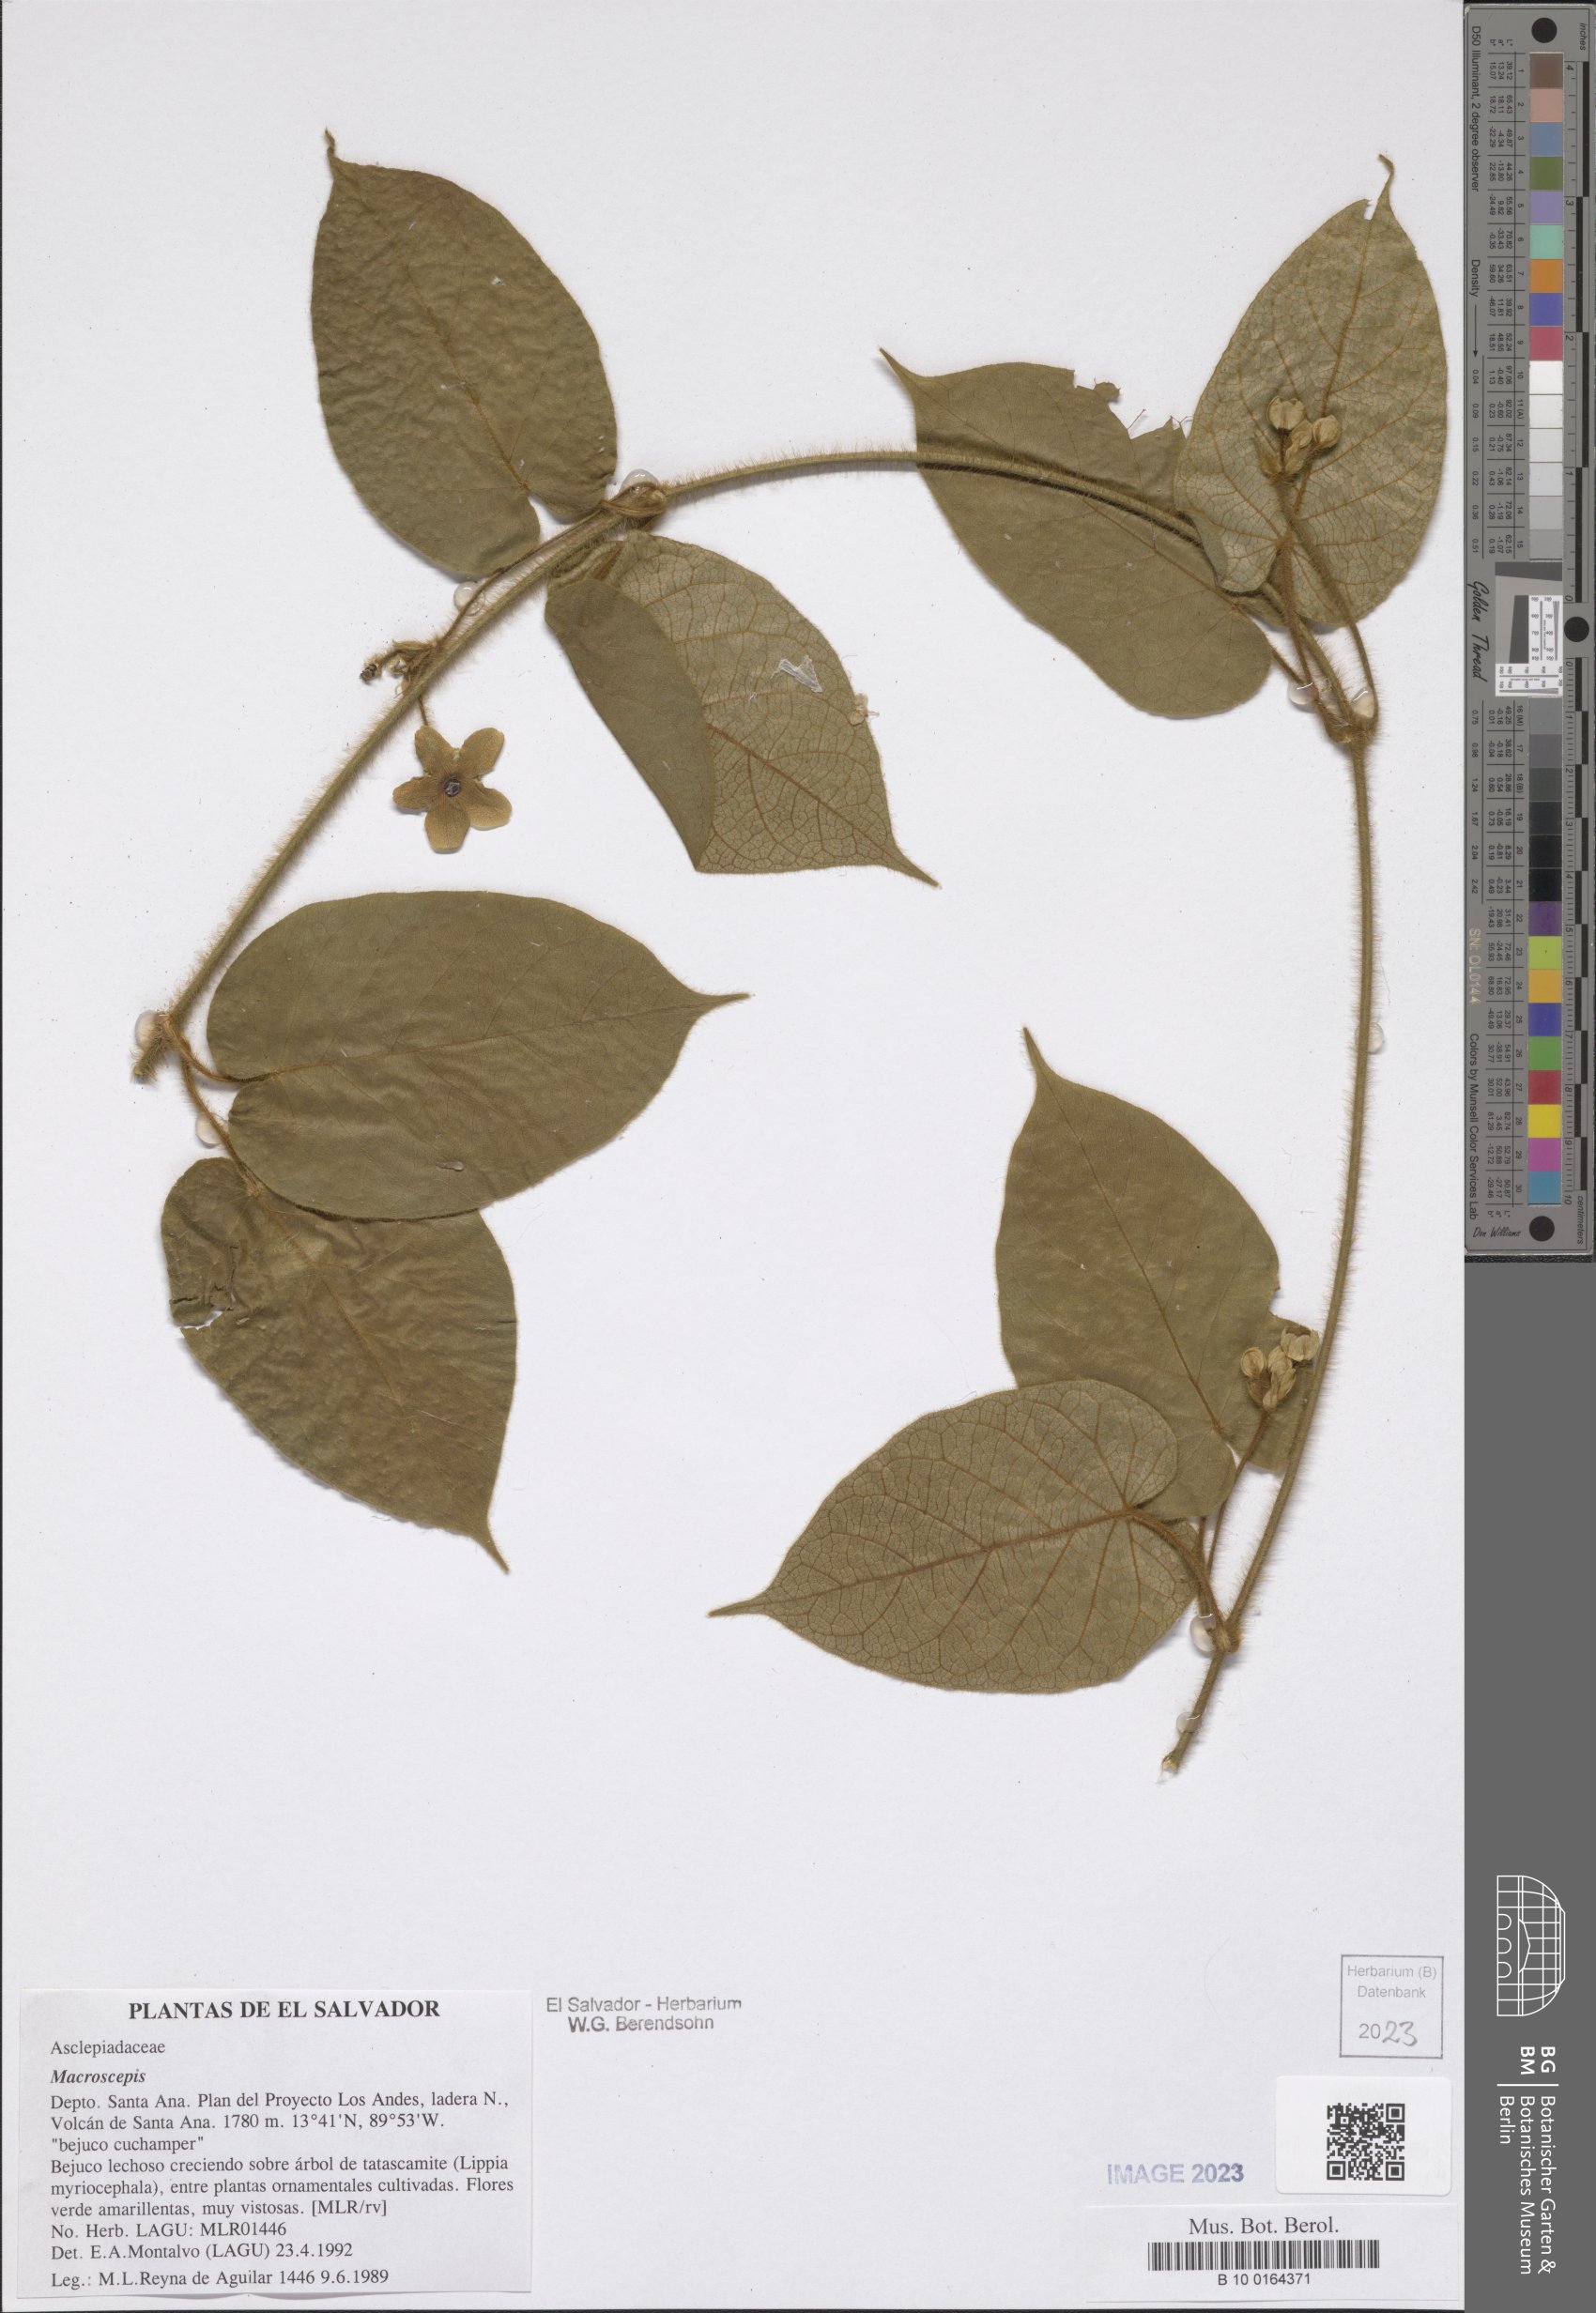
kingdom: Plantae
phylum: Tracheophyta
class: Magnoliopsida
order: Gentianales
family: Apocynaceae
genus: Macroscepis
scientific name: Macroscepis
